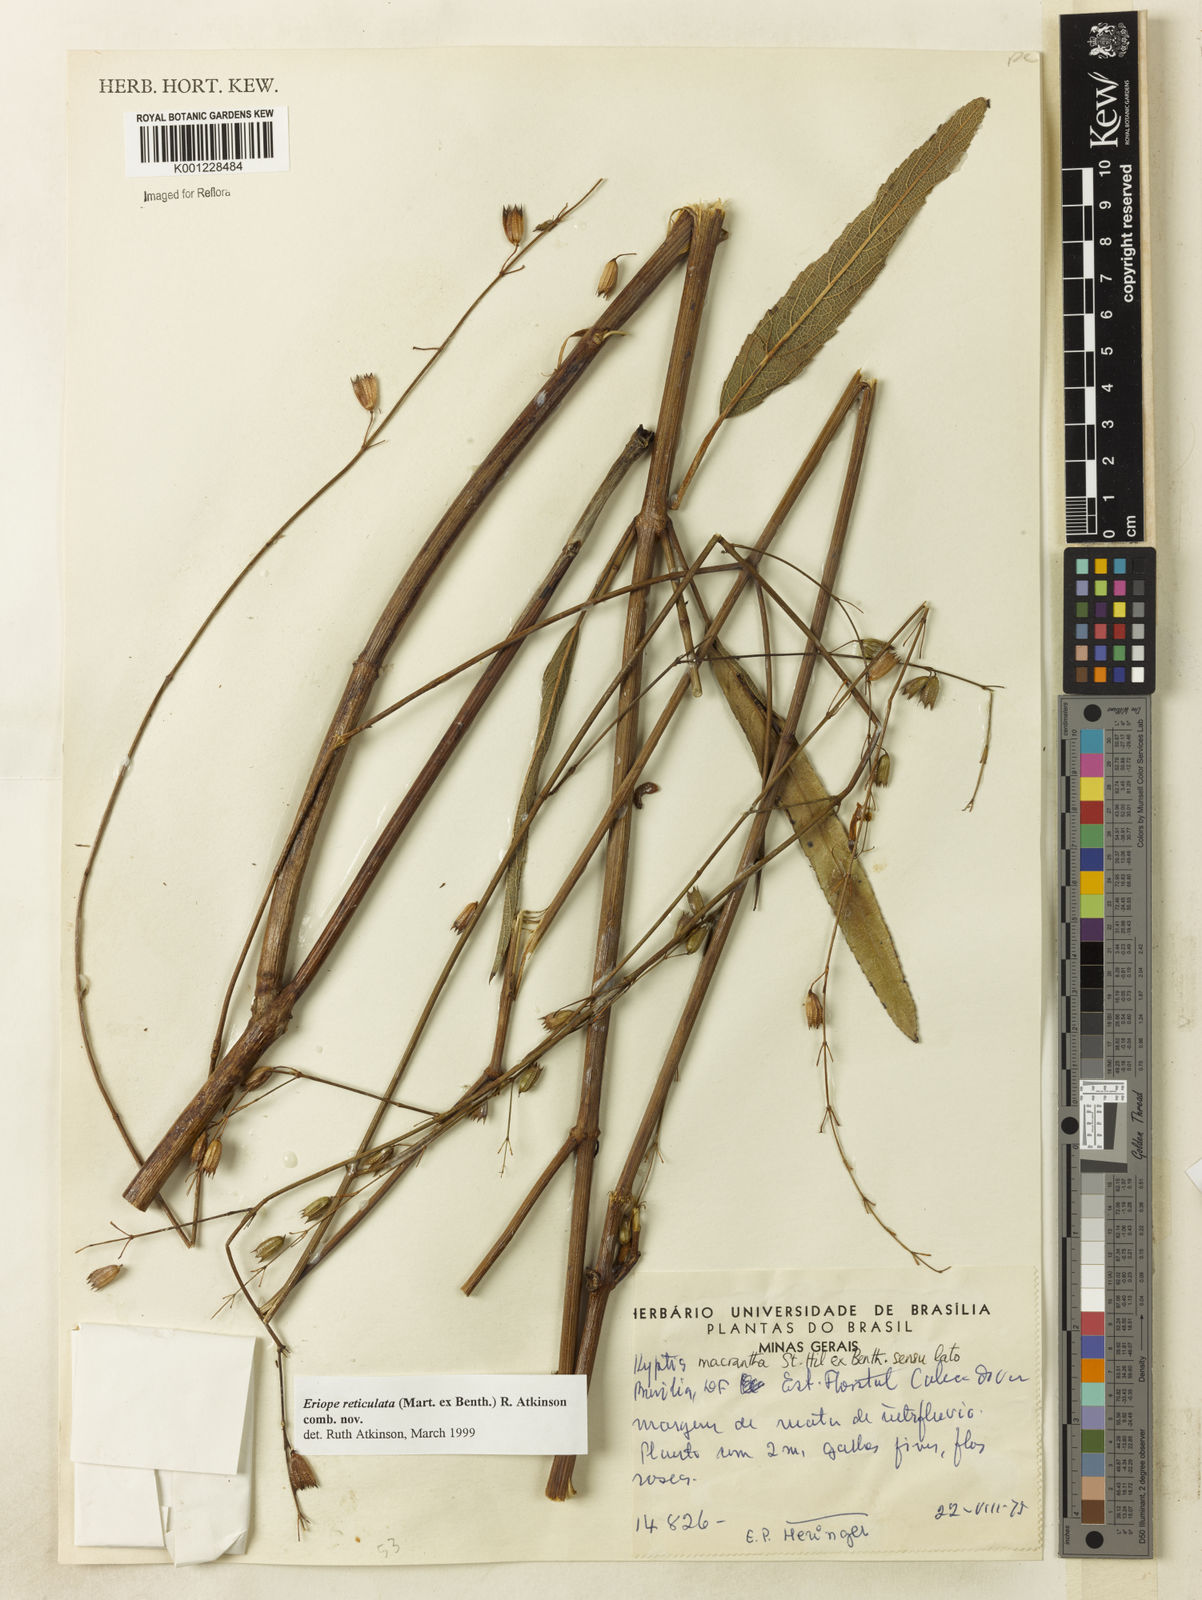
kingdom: Plantae
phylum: Tracheophyta
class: Magnoliopsida
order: Lamiales
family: Lamiaceae
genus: Hypenia
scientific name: Hypenia reticulata
